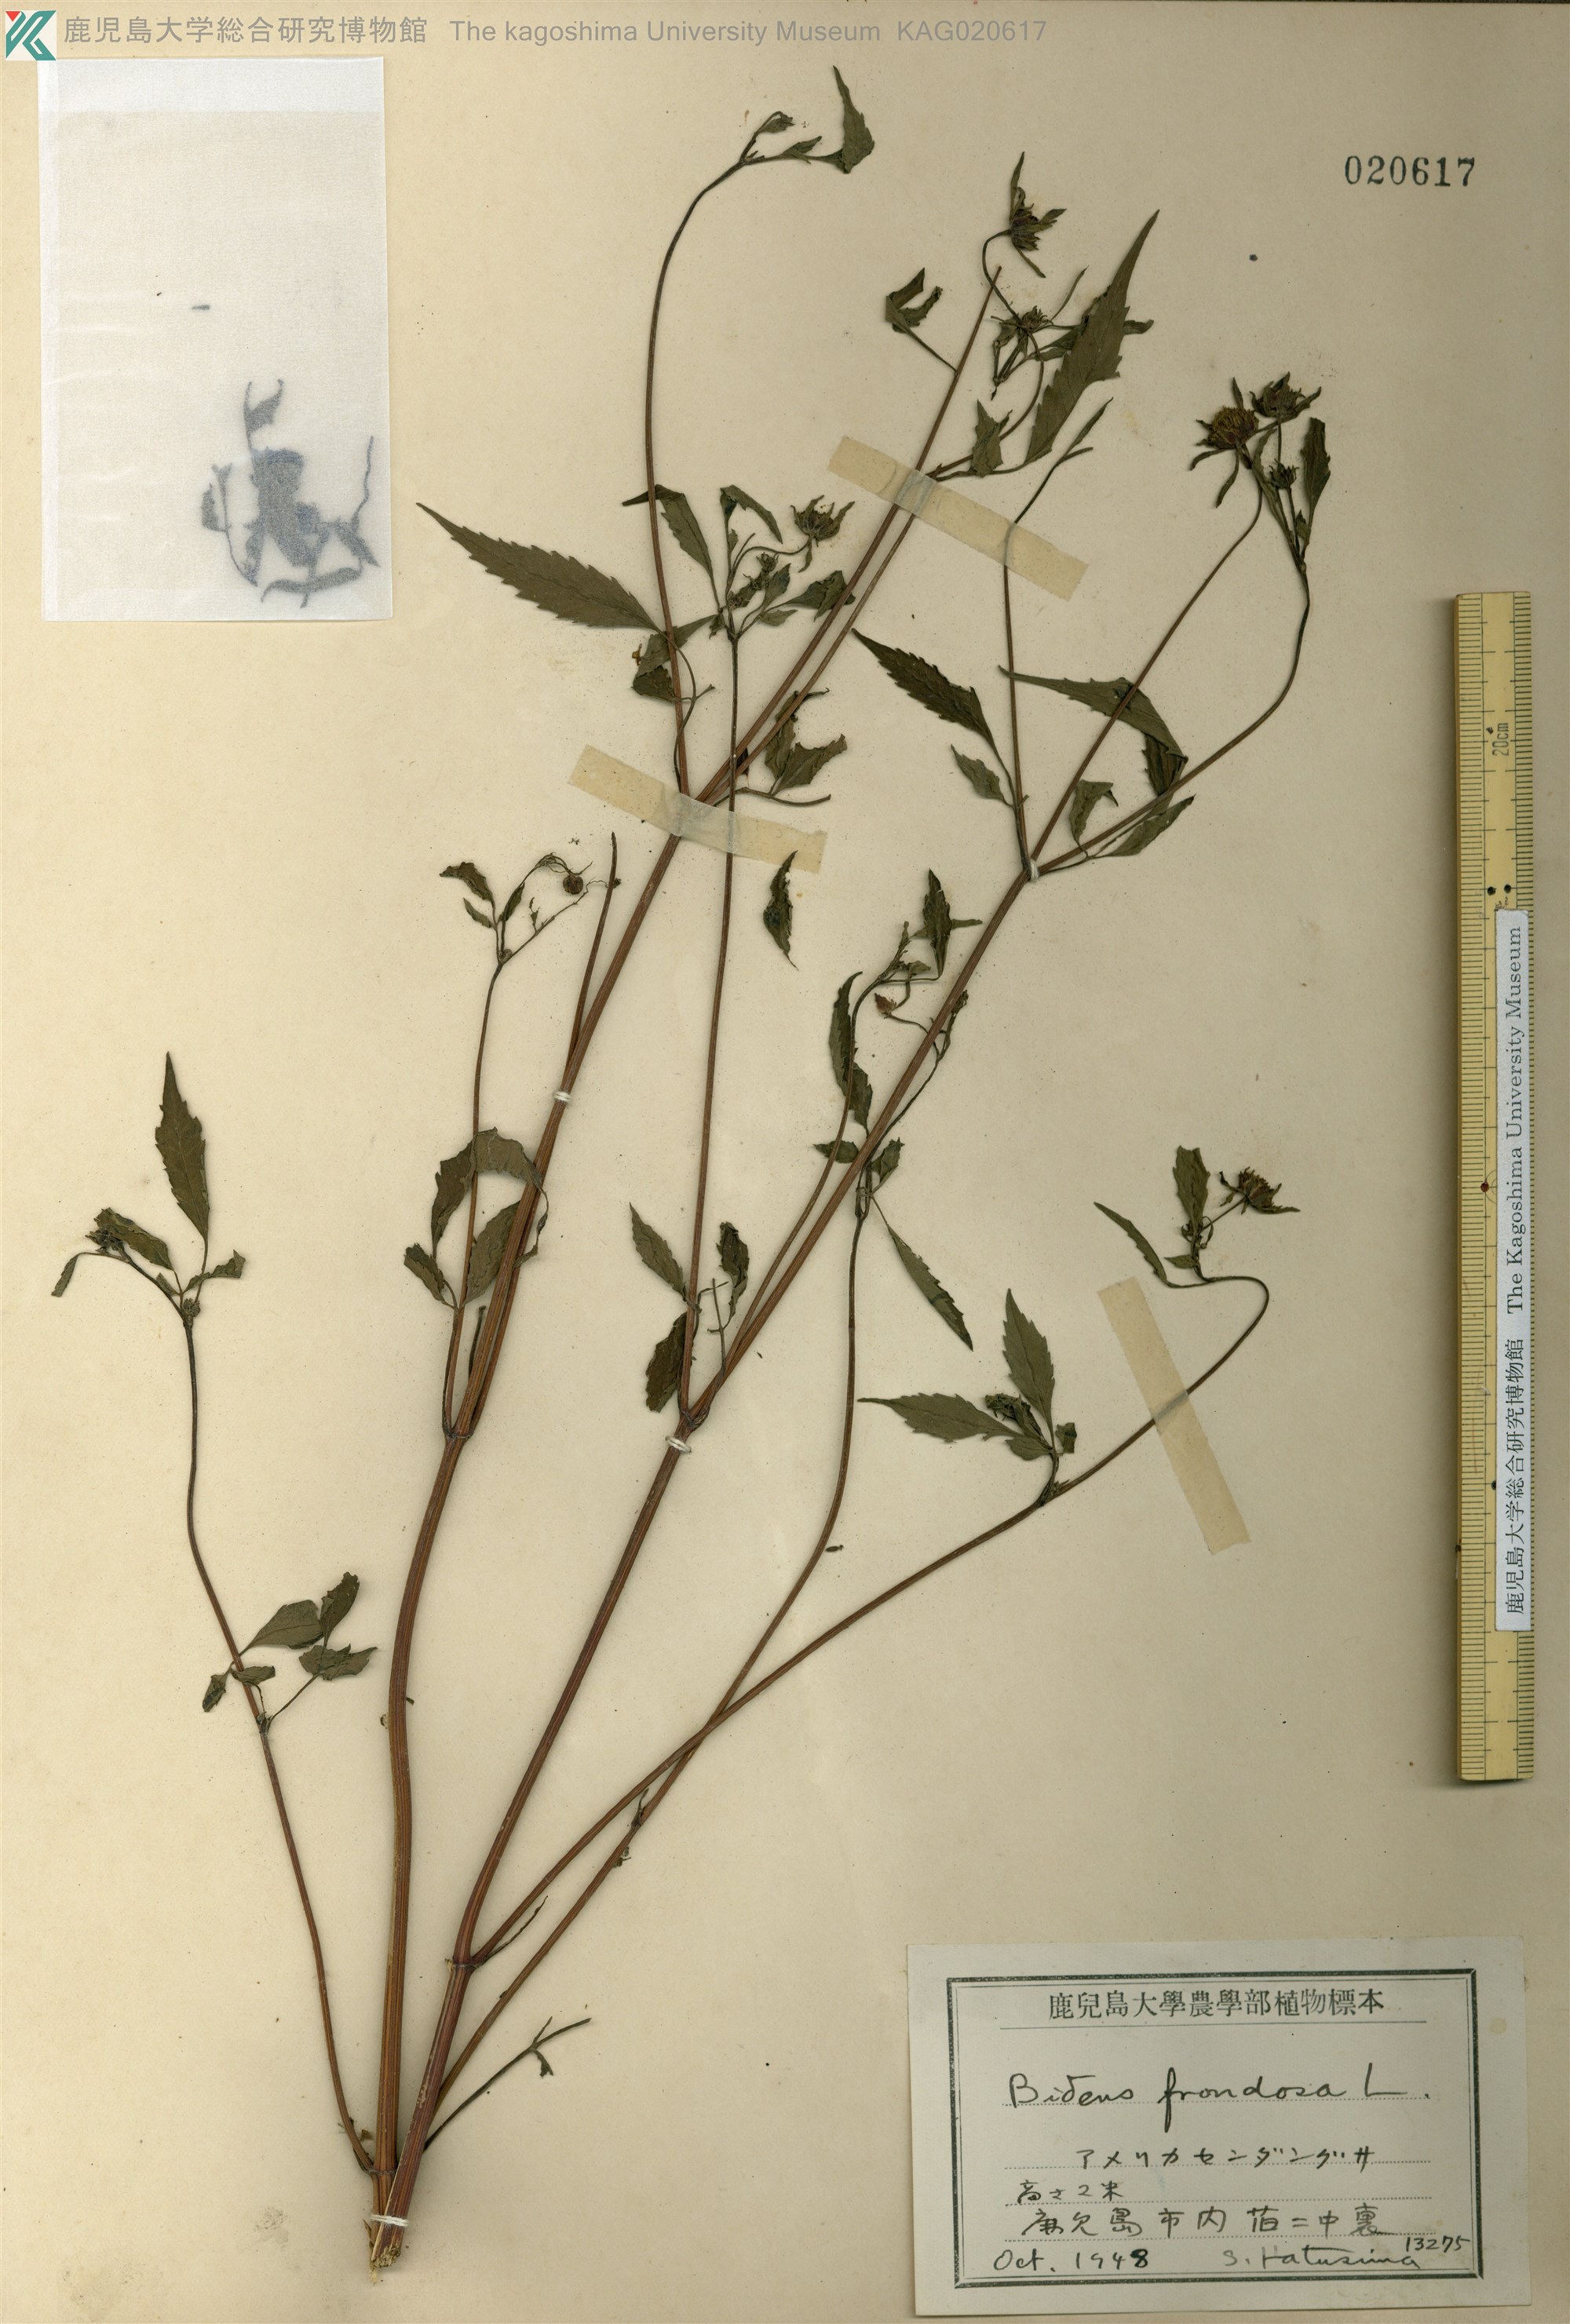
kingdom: Plantae
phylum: Tracheophyta
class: Magnoliopsida
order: Asterales
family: Asteraceae
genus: Bidens
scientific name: Bidens frondosa
